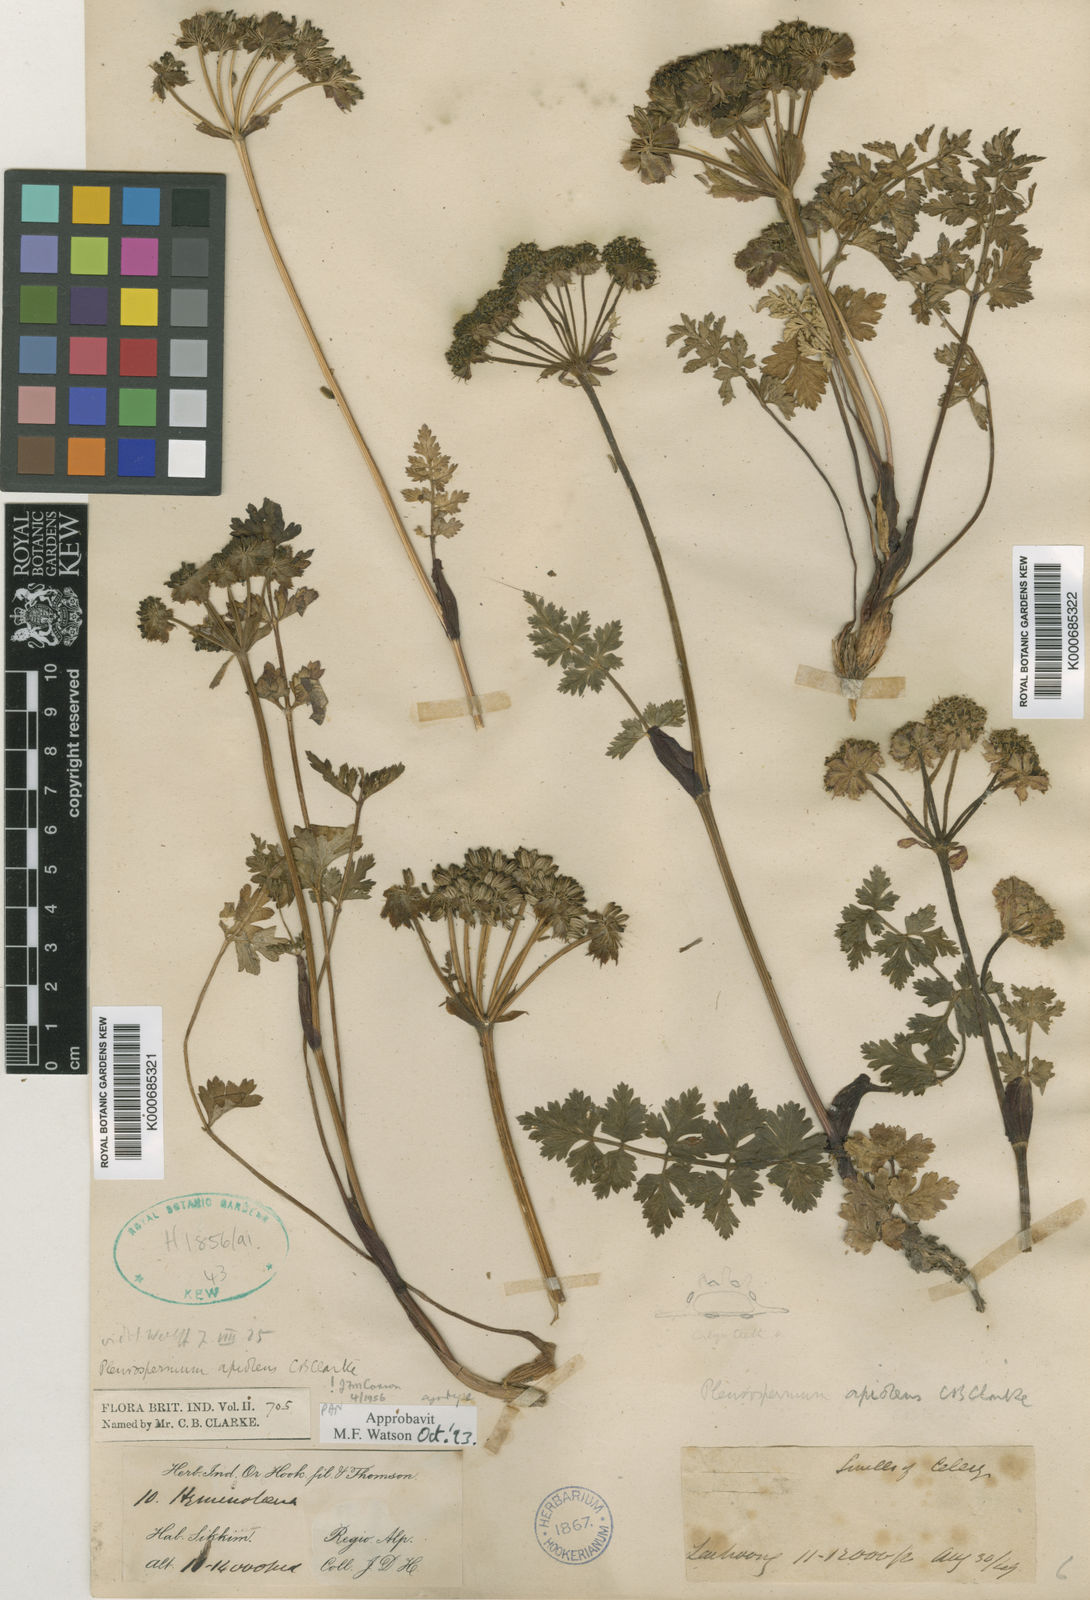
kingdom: Plantae
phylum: Tracheophyta
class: Magnoliopsida
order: Apiales
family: Apiaceae
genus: Hymenidium
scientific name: Hymenidium apiolens
